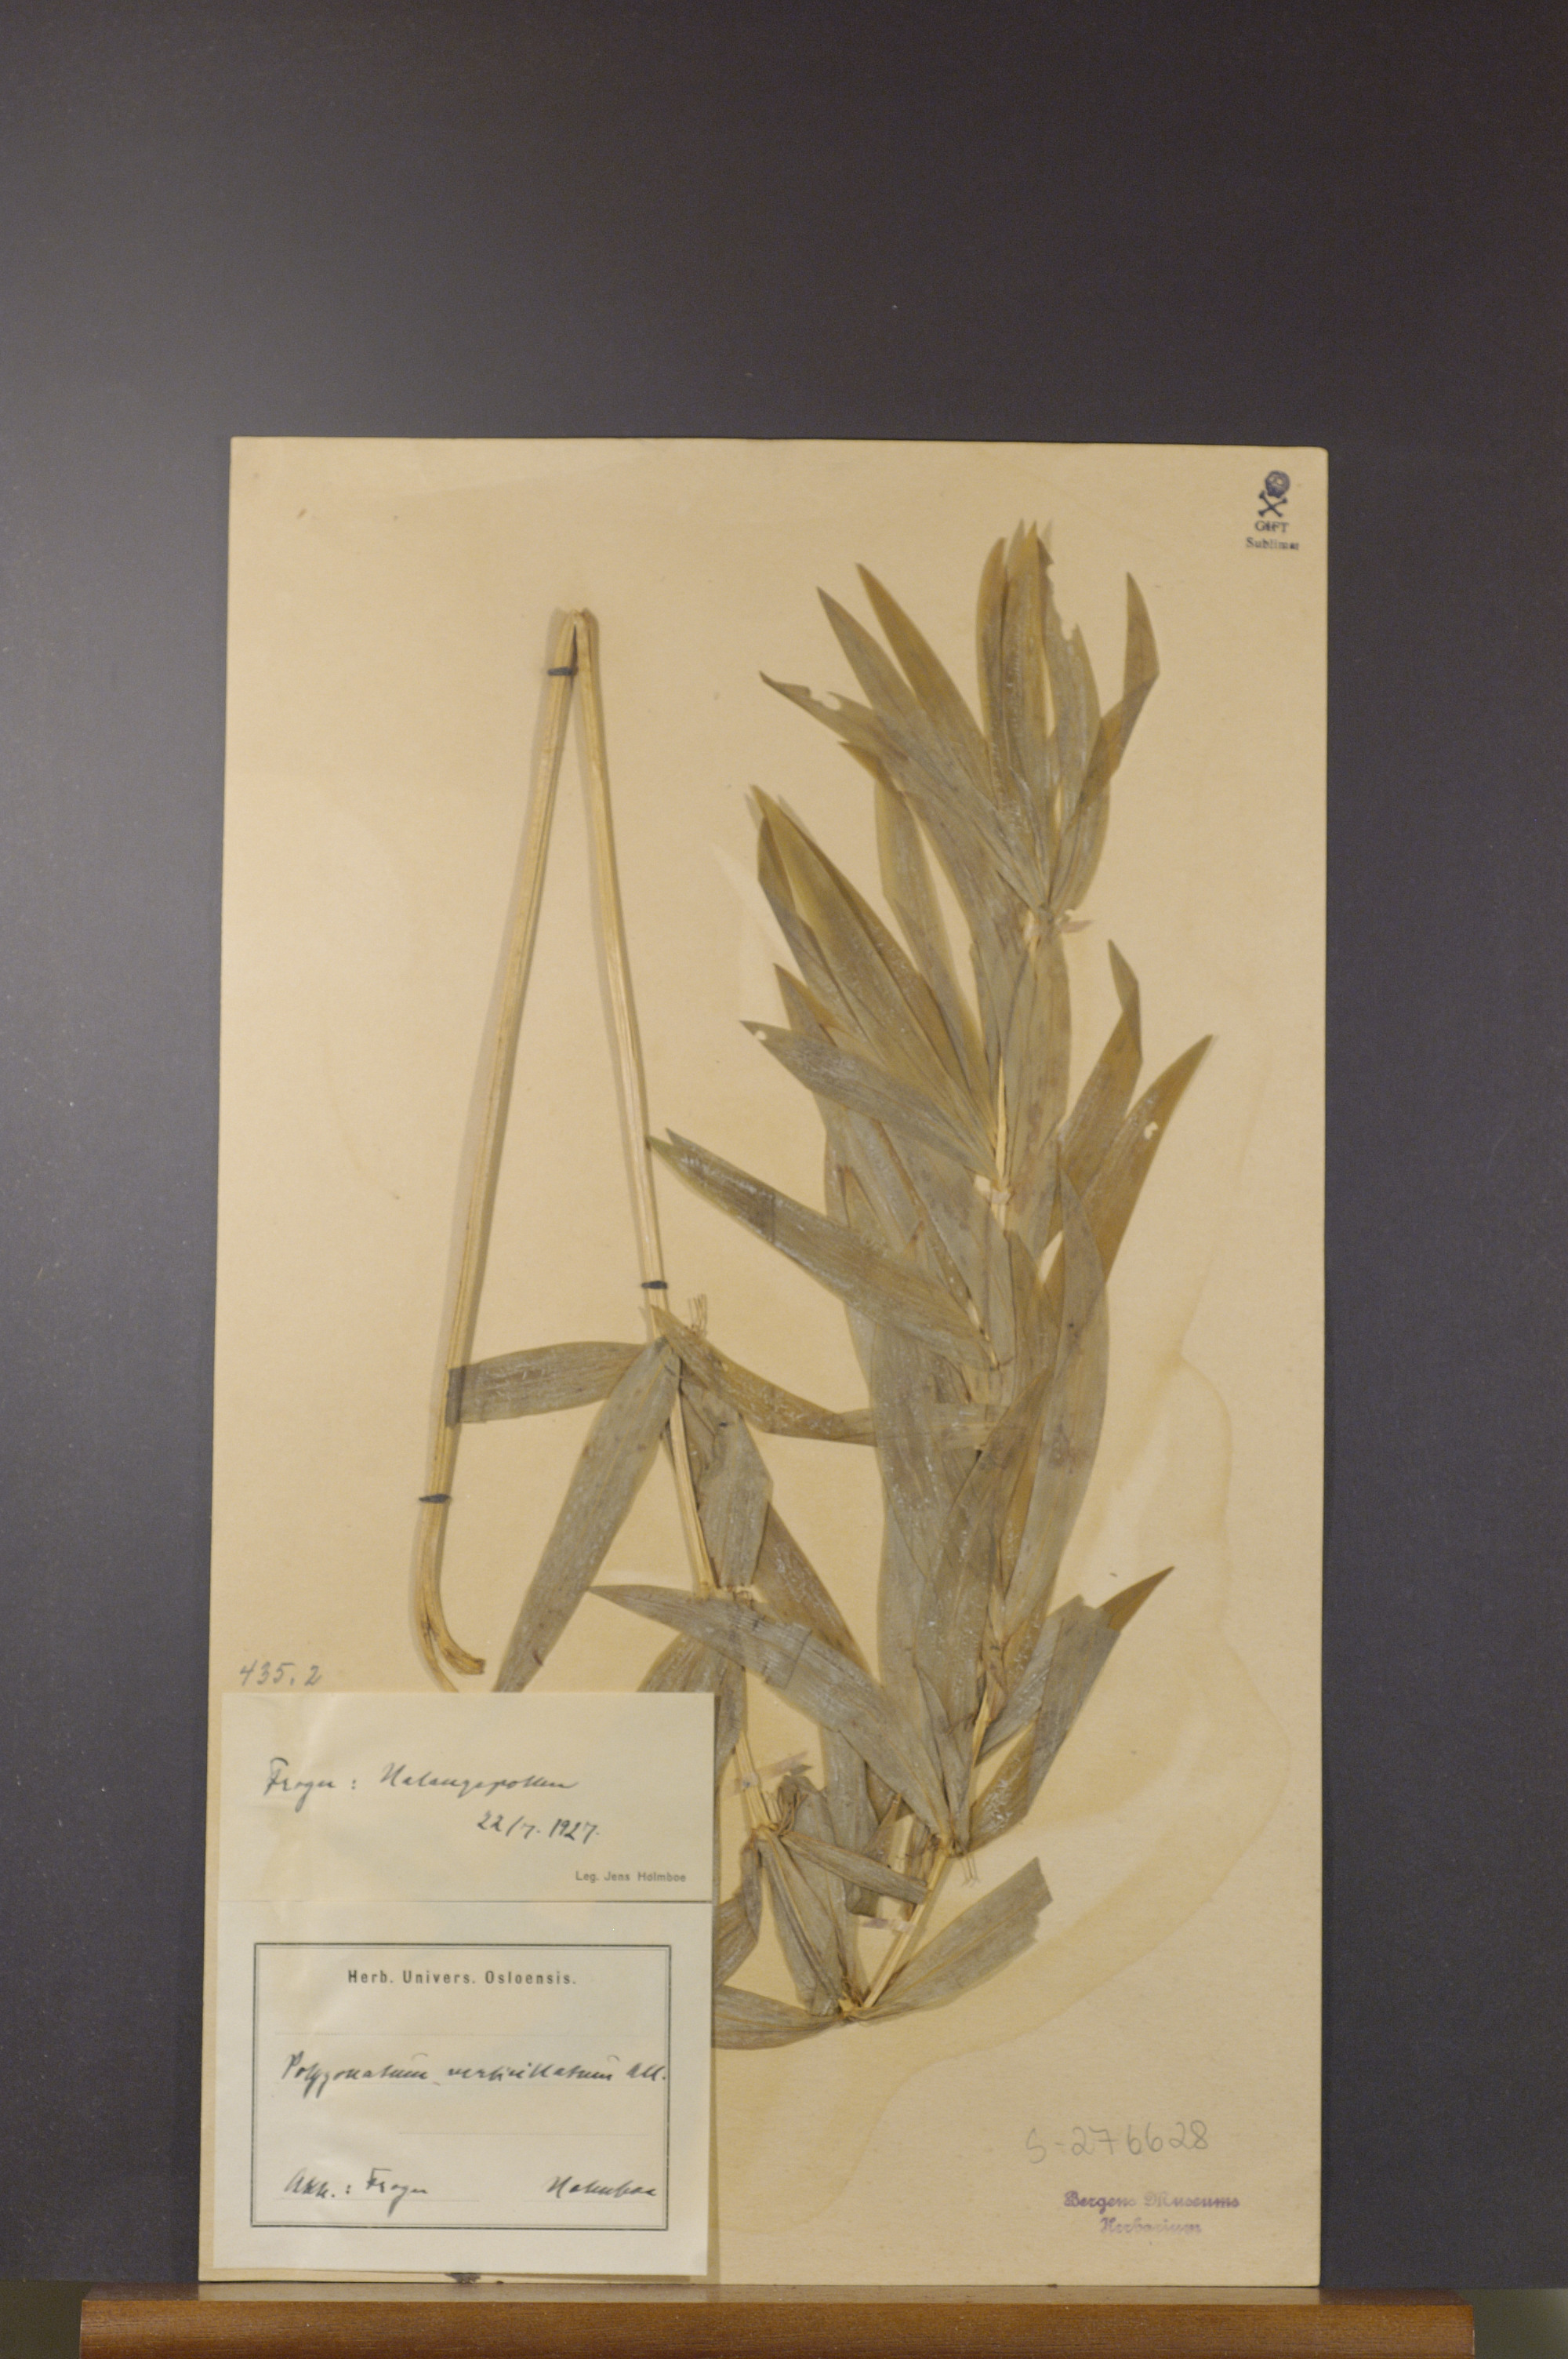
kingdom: Plantae
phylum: Tracheophyta
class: Liliopsida
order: Asparagales
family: Asparagaceae
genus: Polygonatum
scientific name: Polygonatum verticillatum
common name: Whorled solomon's-seal
